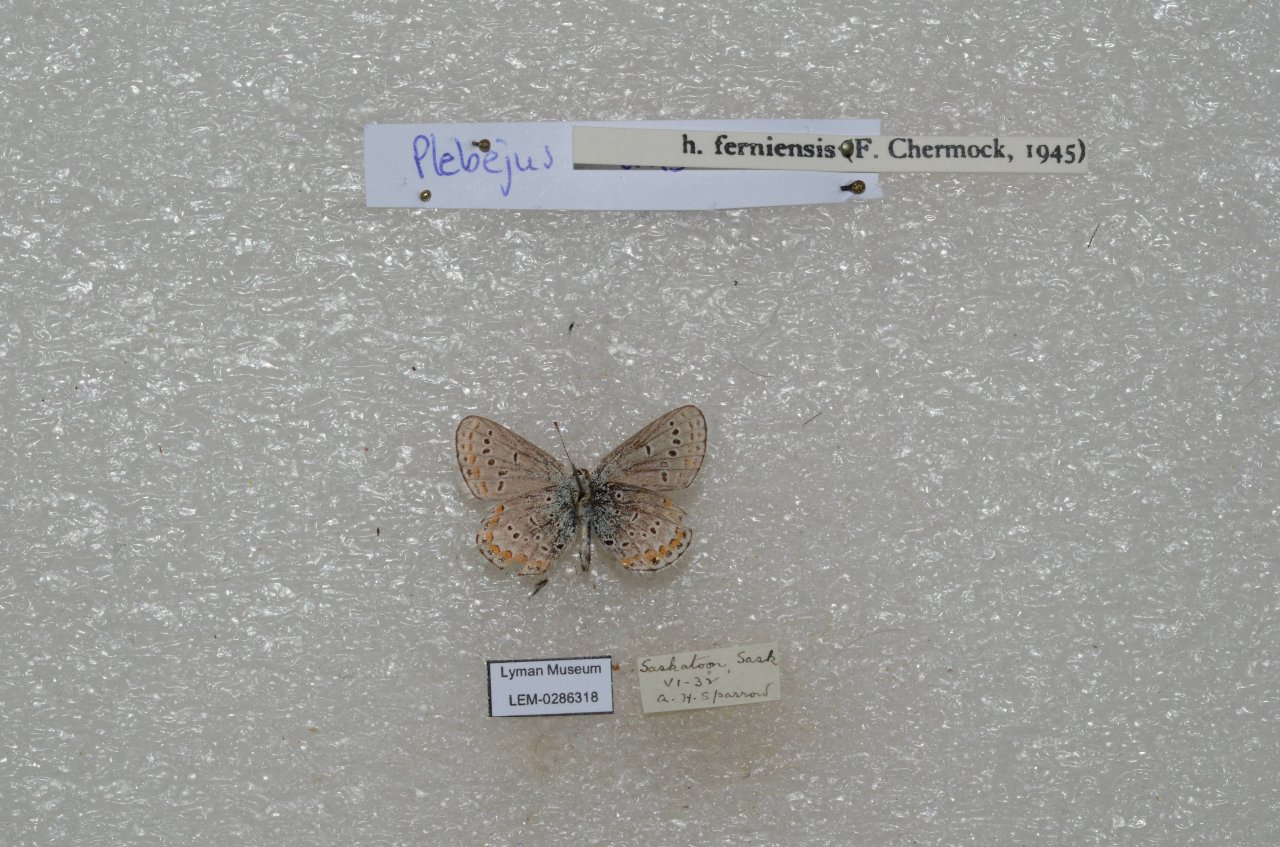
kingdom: Animalia
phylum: Arthropoda
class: Insecta
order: Lepidoptera
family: Lycaenidae
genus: Lycaeides
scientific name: Lycaeides idas
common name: Northern Blue
